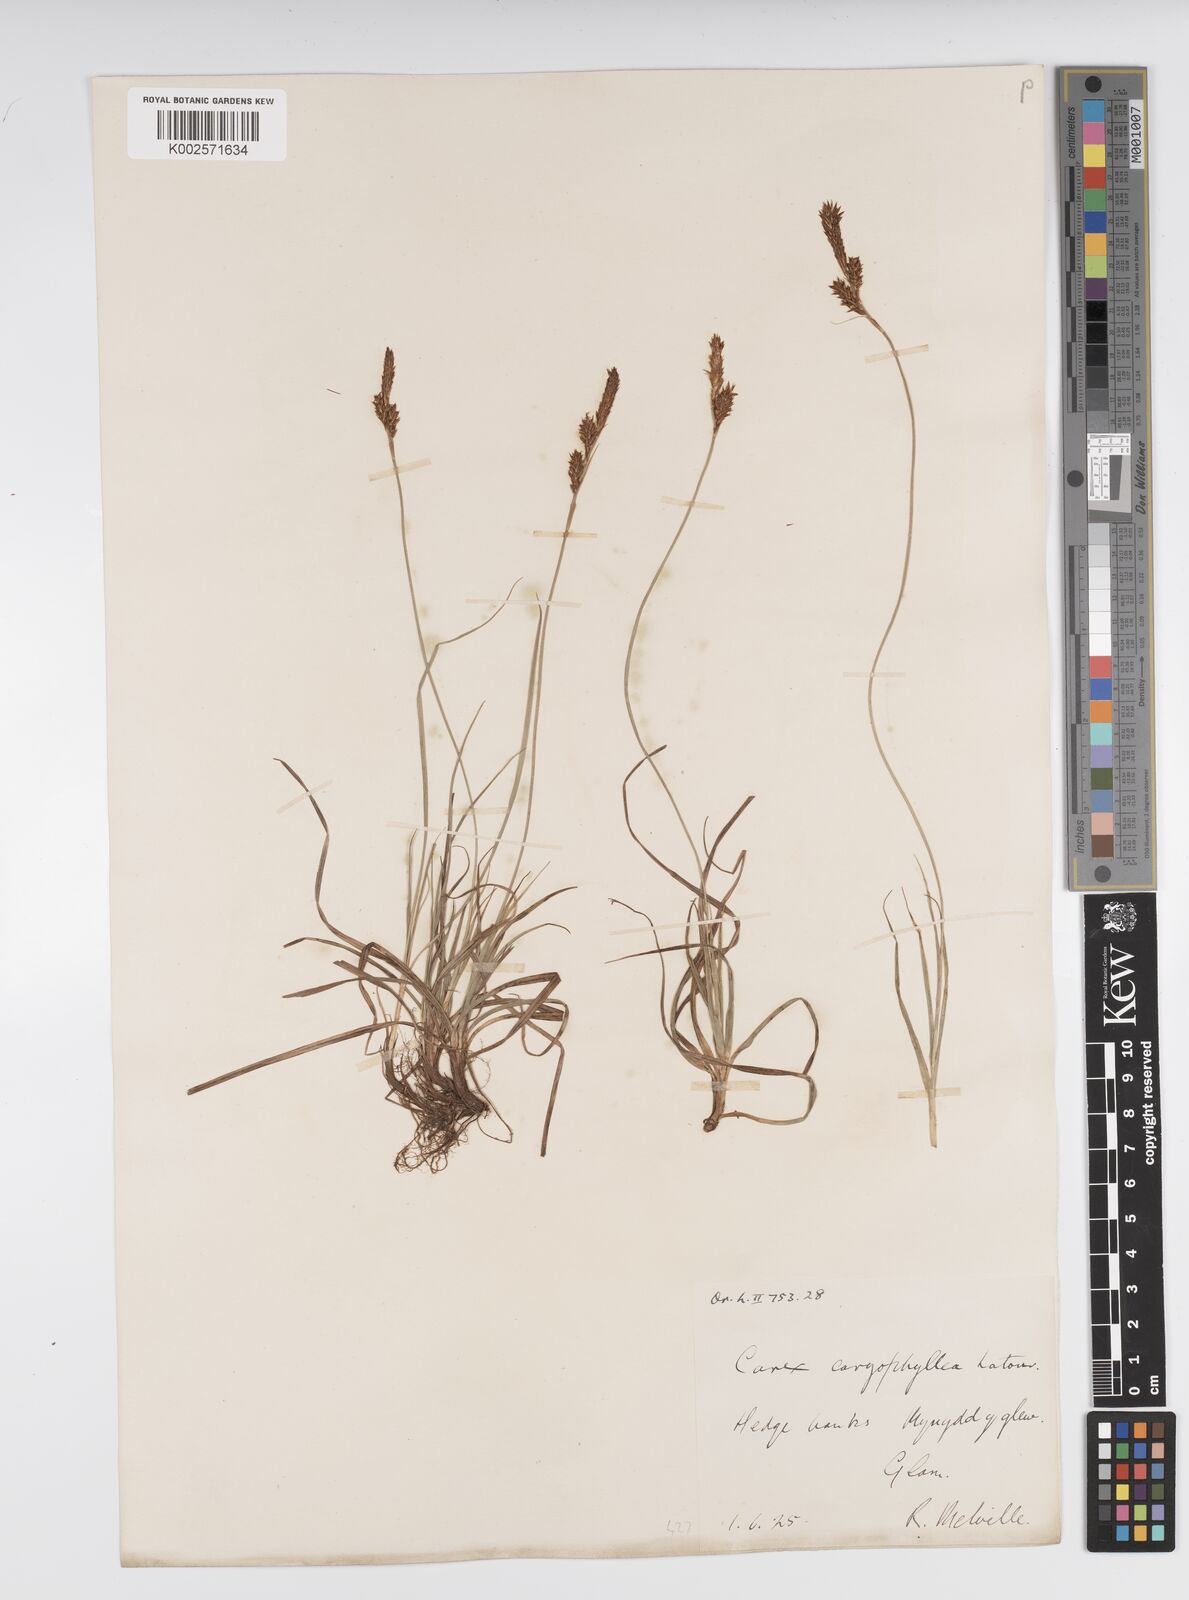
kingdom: Plantae
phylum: Tracheophyta
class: Liliopsida
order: Poales
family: Cyperaceae
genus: Carex
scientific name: Carex caryophyllea
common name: Spring sedge
